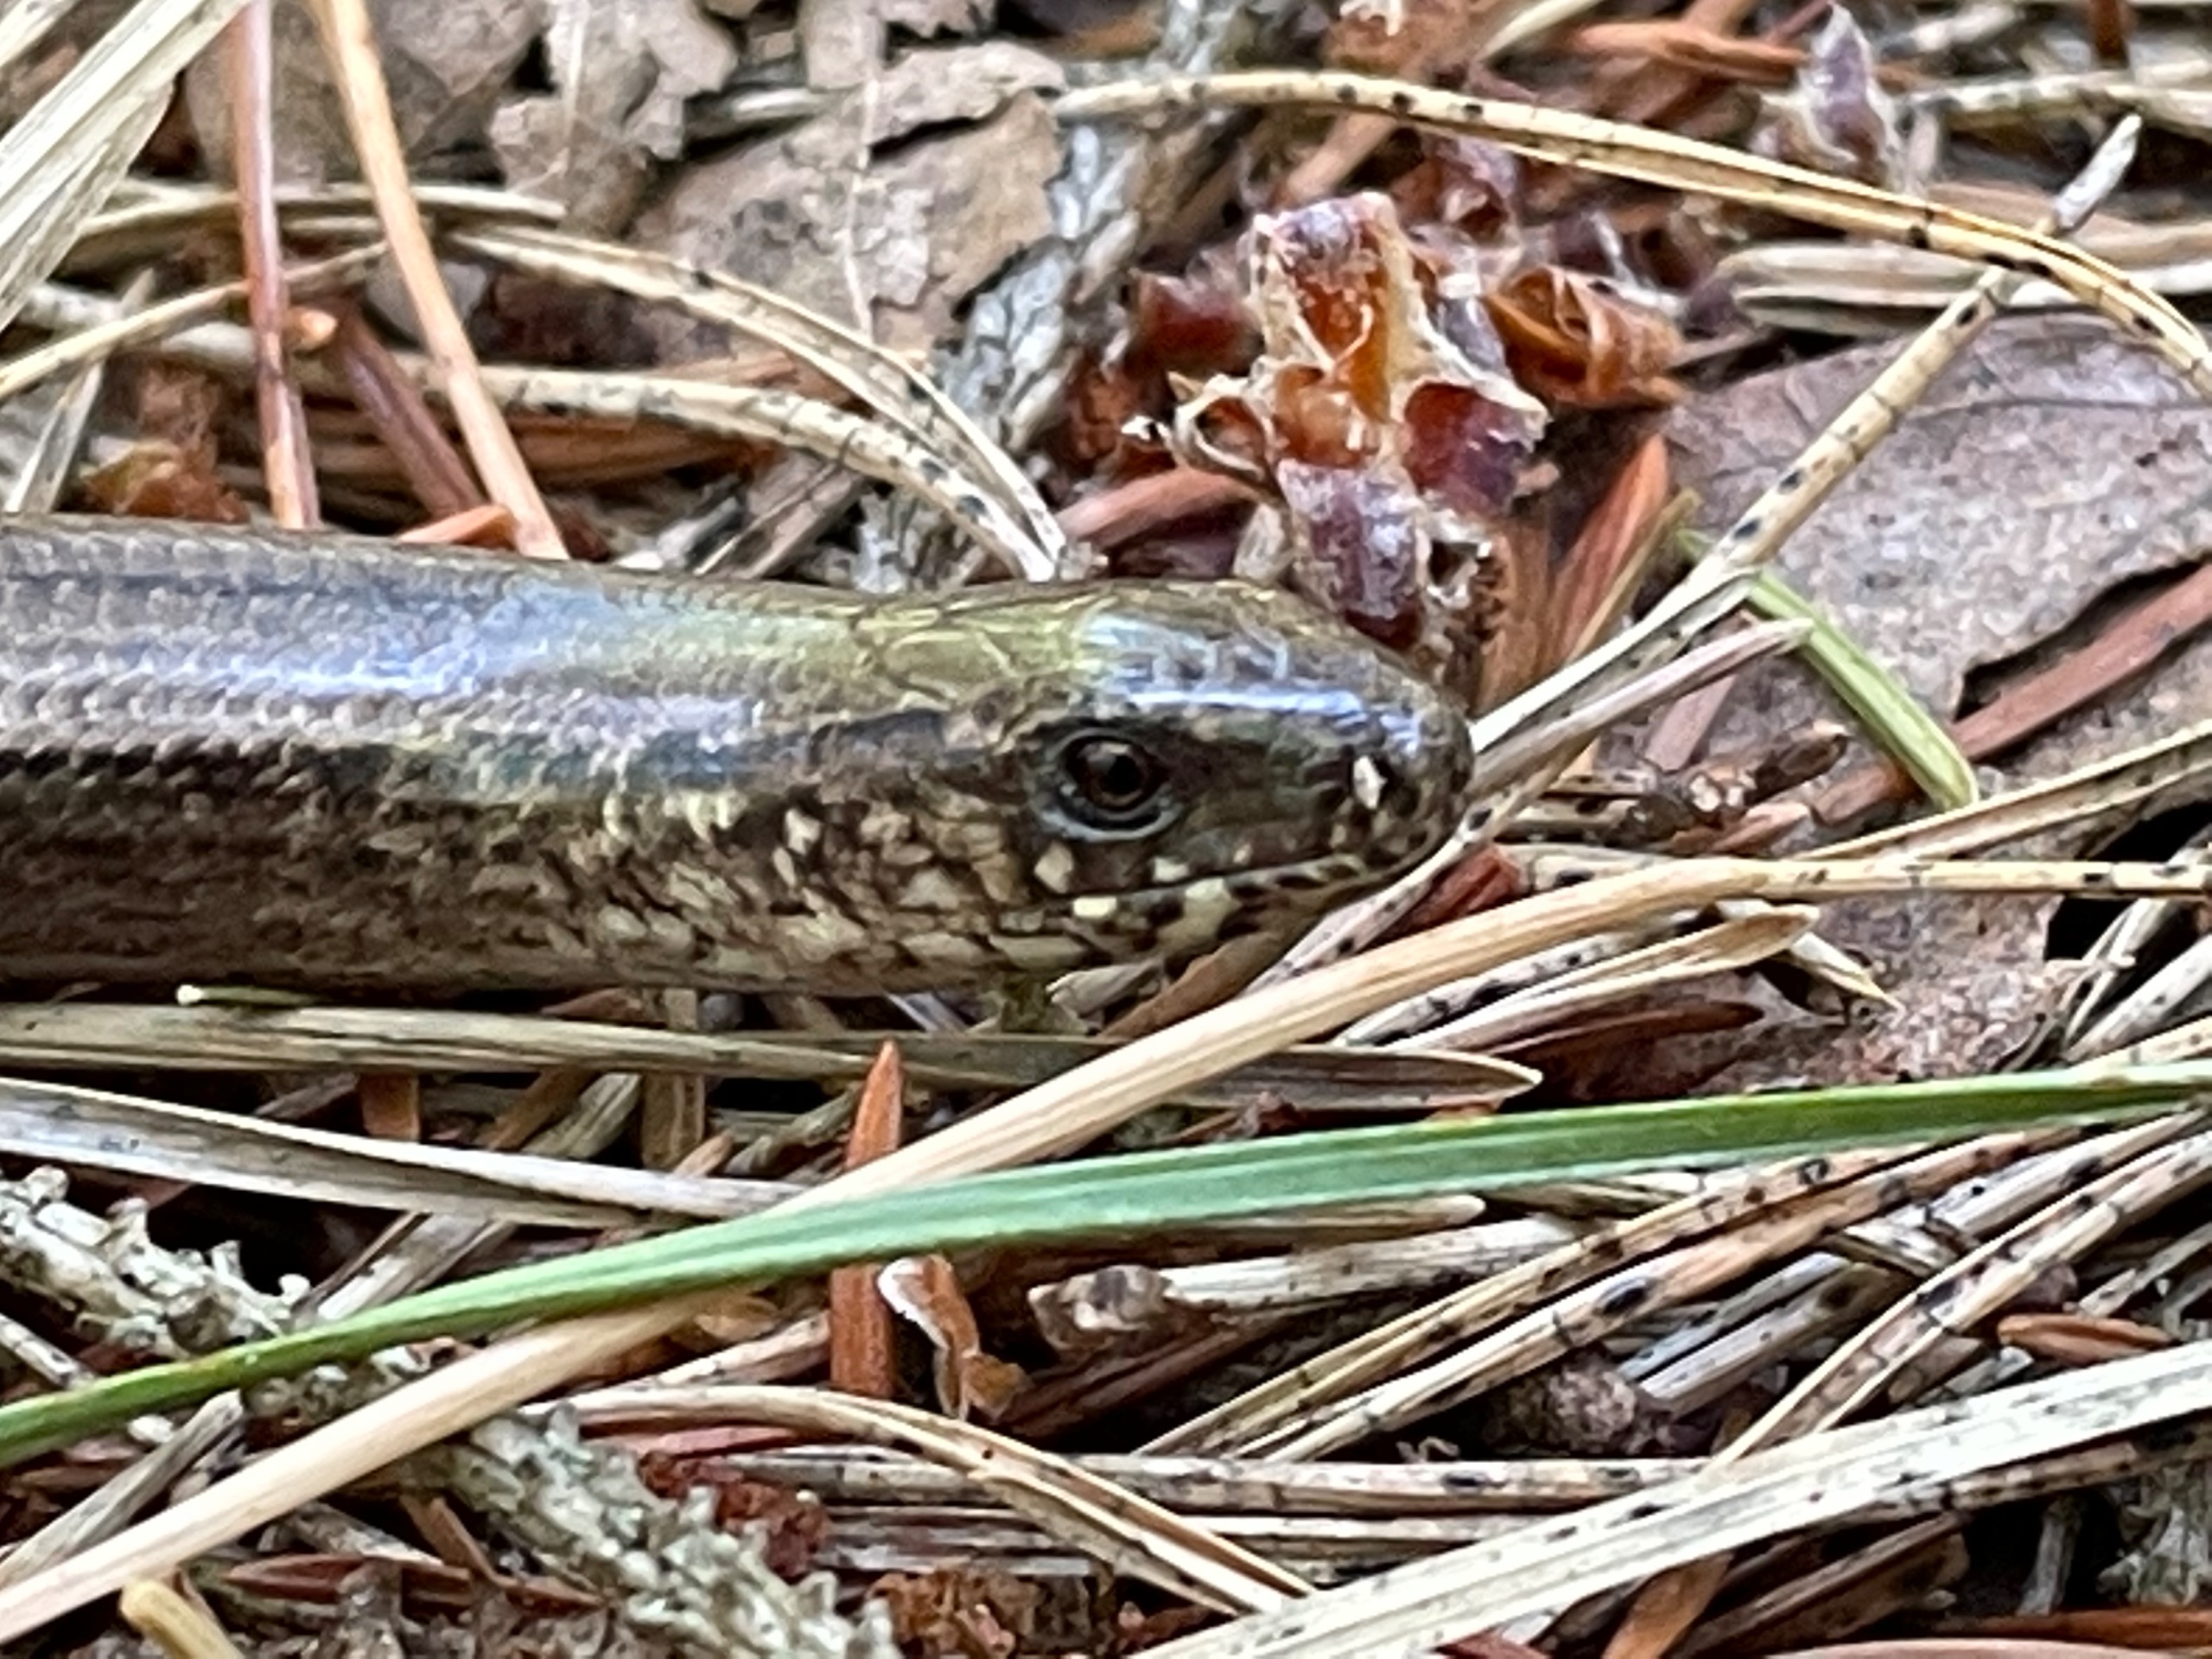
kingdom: Animalia
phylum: Chordata
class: Squamata
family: Anguidae
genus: Anguis
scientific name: Anguis fragilis
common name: Stålorm
